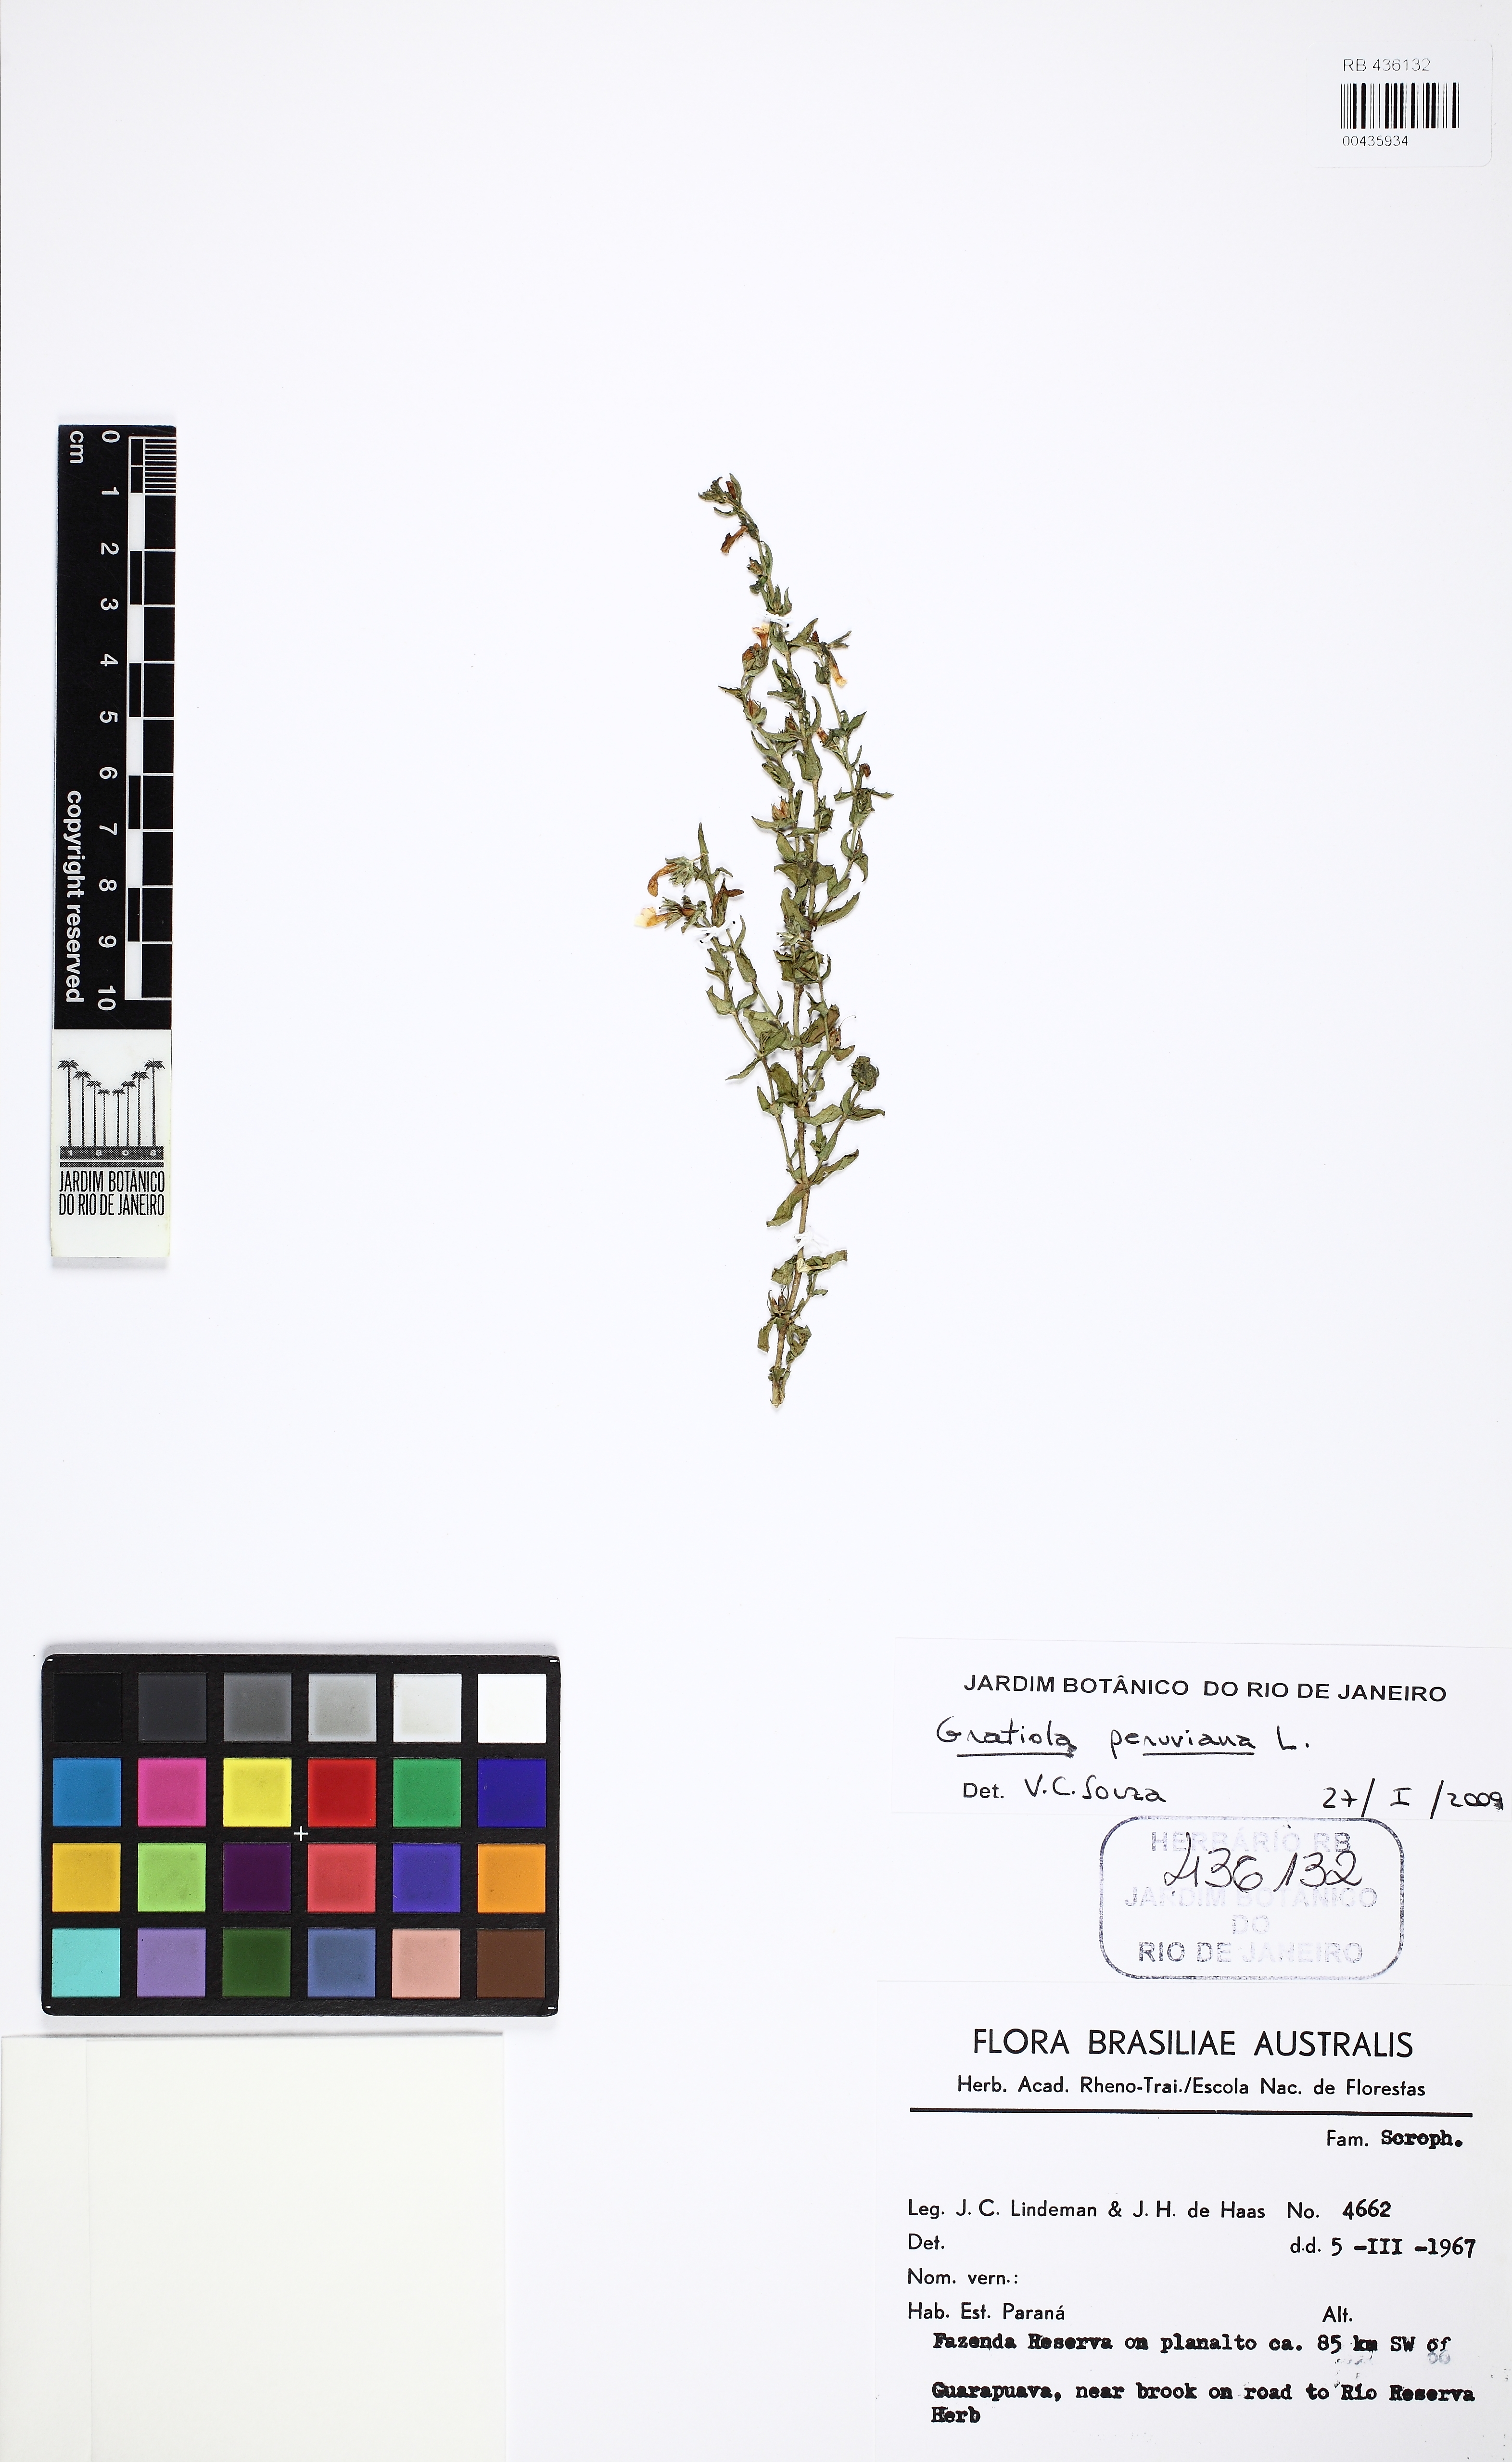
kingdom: Plantae
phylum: Tracheophyta
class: Magnoliopsida
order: Lamiales
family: Plantaginaceae
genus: Gratiola
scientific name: Gratiola peruviana
